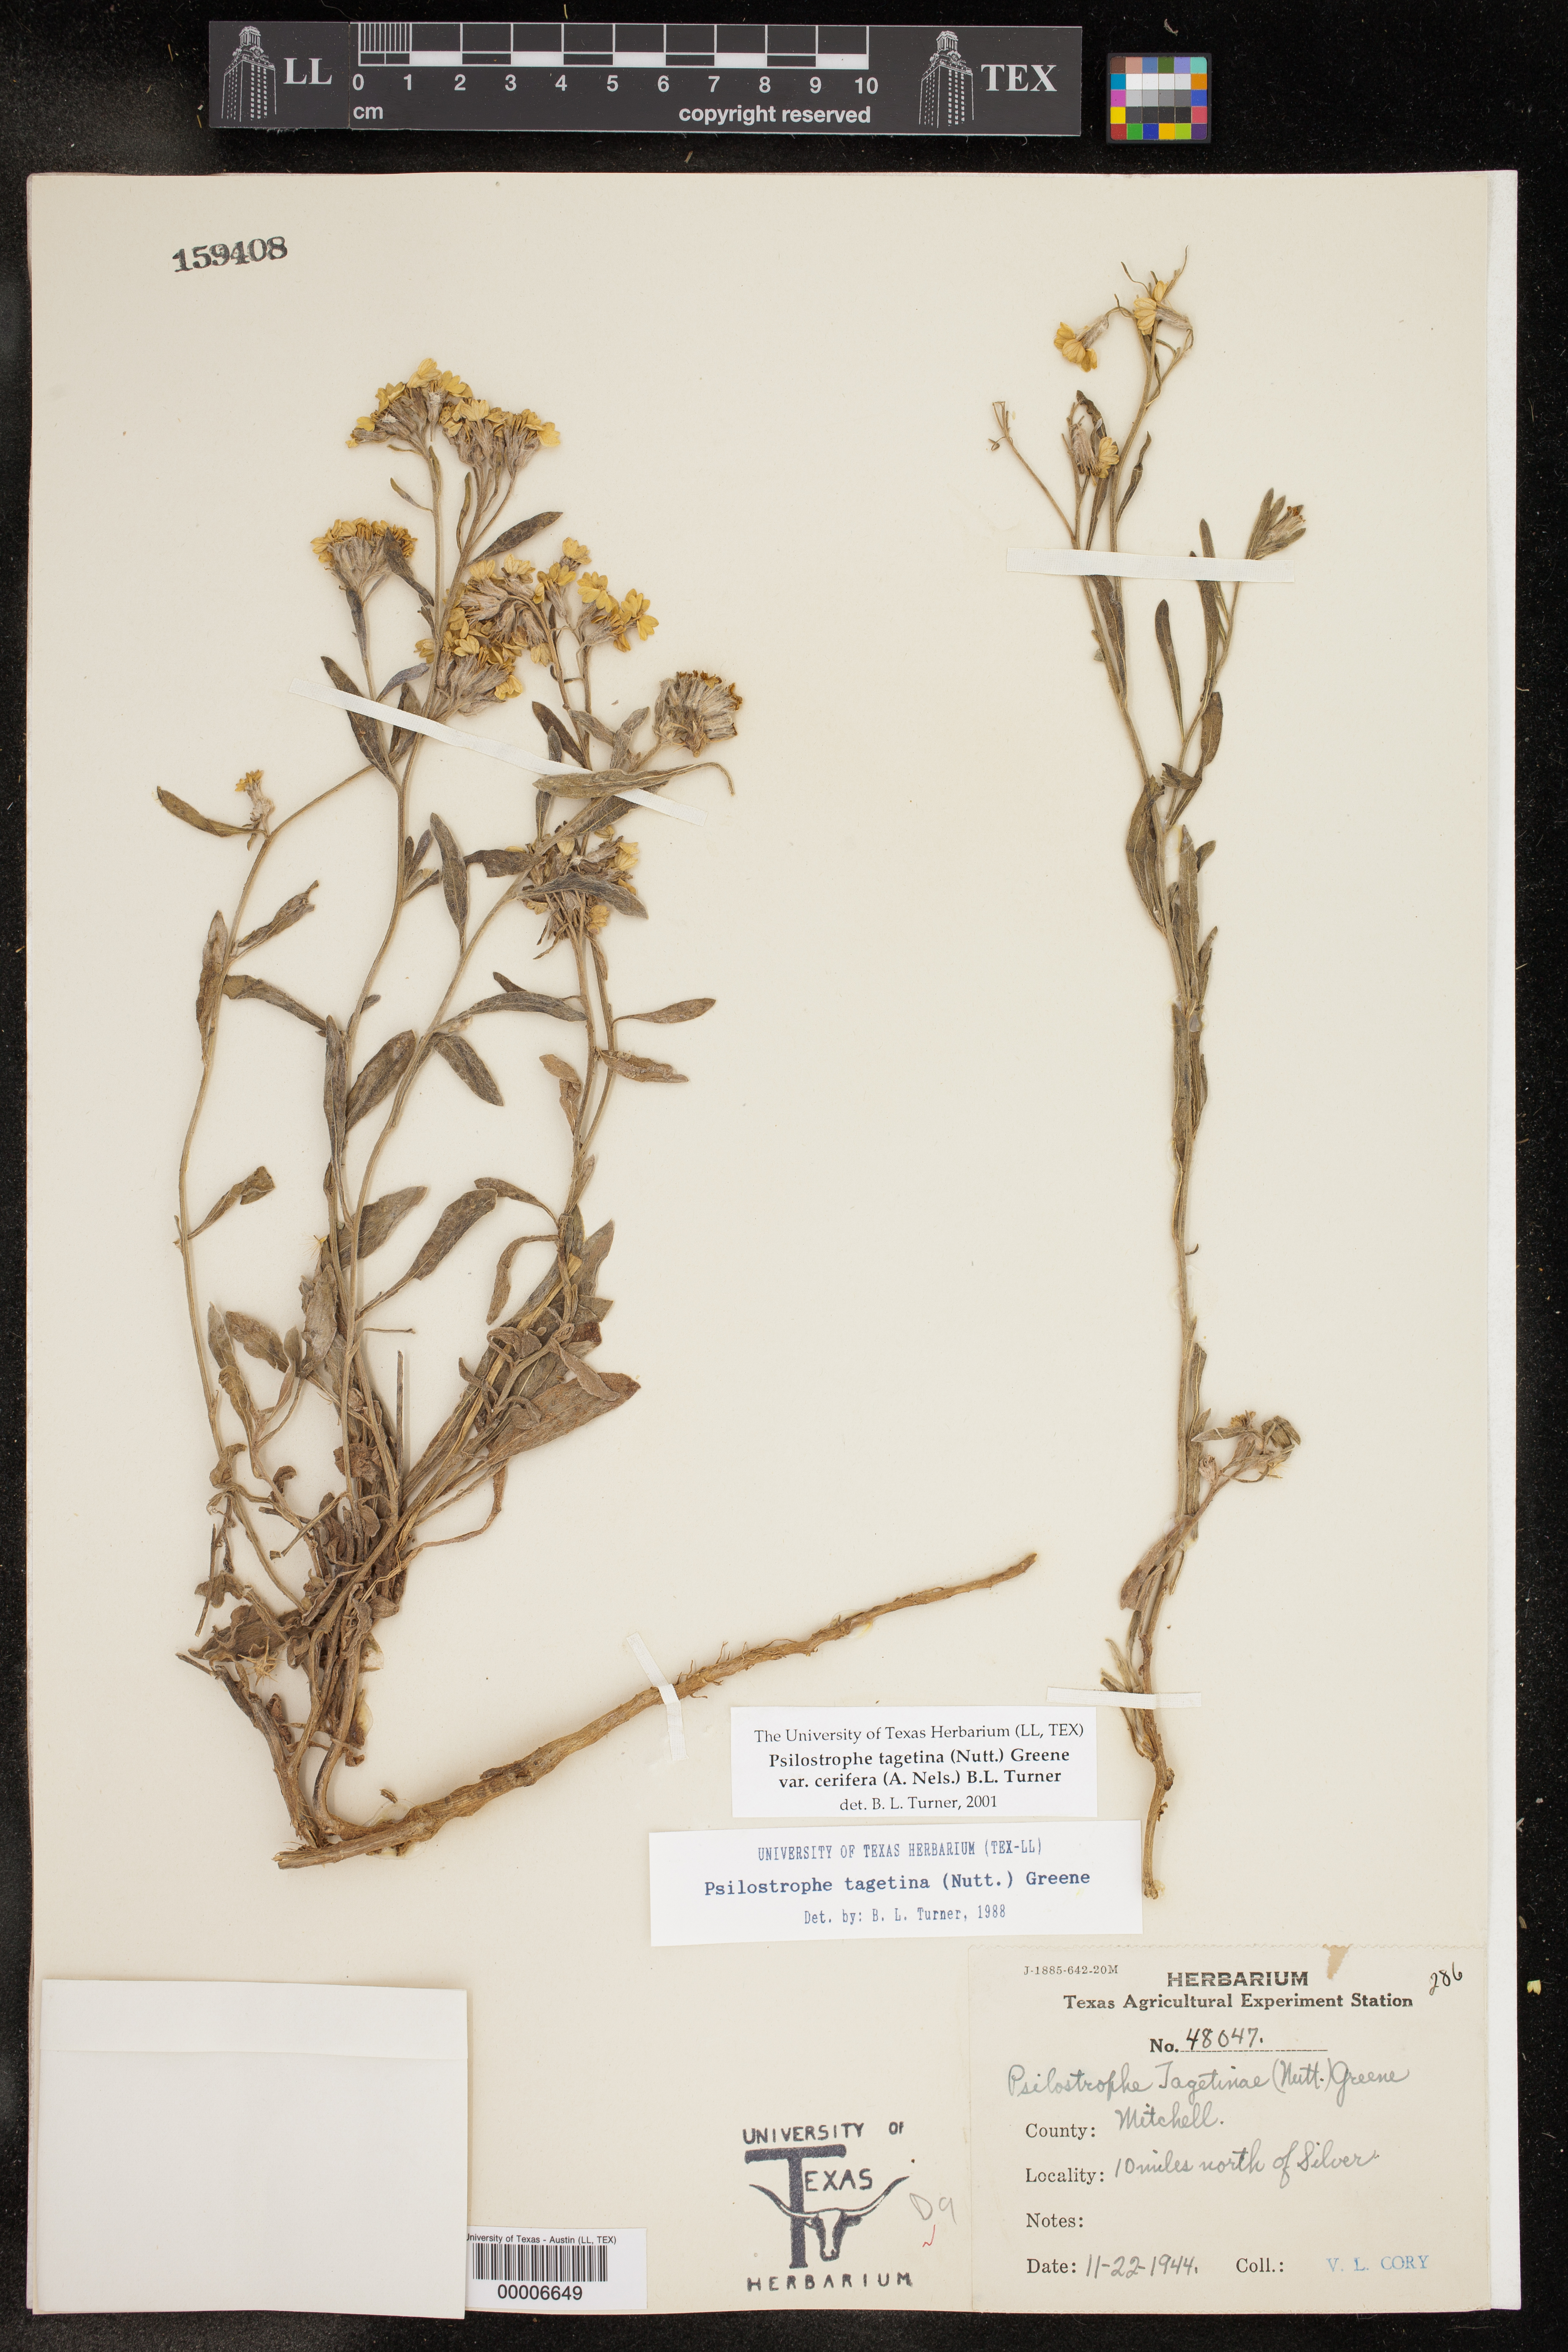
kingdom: Plantae
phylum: Tracheophyta
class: Magnoliopsida
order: Asterales
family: Asteraceae
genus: Psilostrophe
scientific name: Psilostrophe villosa
